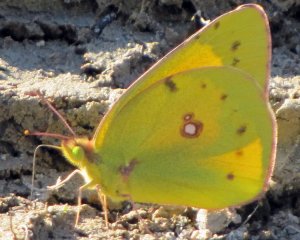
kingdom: Animalia
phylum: Arthropoda
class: Insecta
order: Lepidoptera
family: Pieridae
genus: Colias
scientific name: Colias eurytheme
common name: Orange Sulphur
